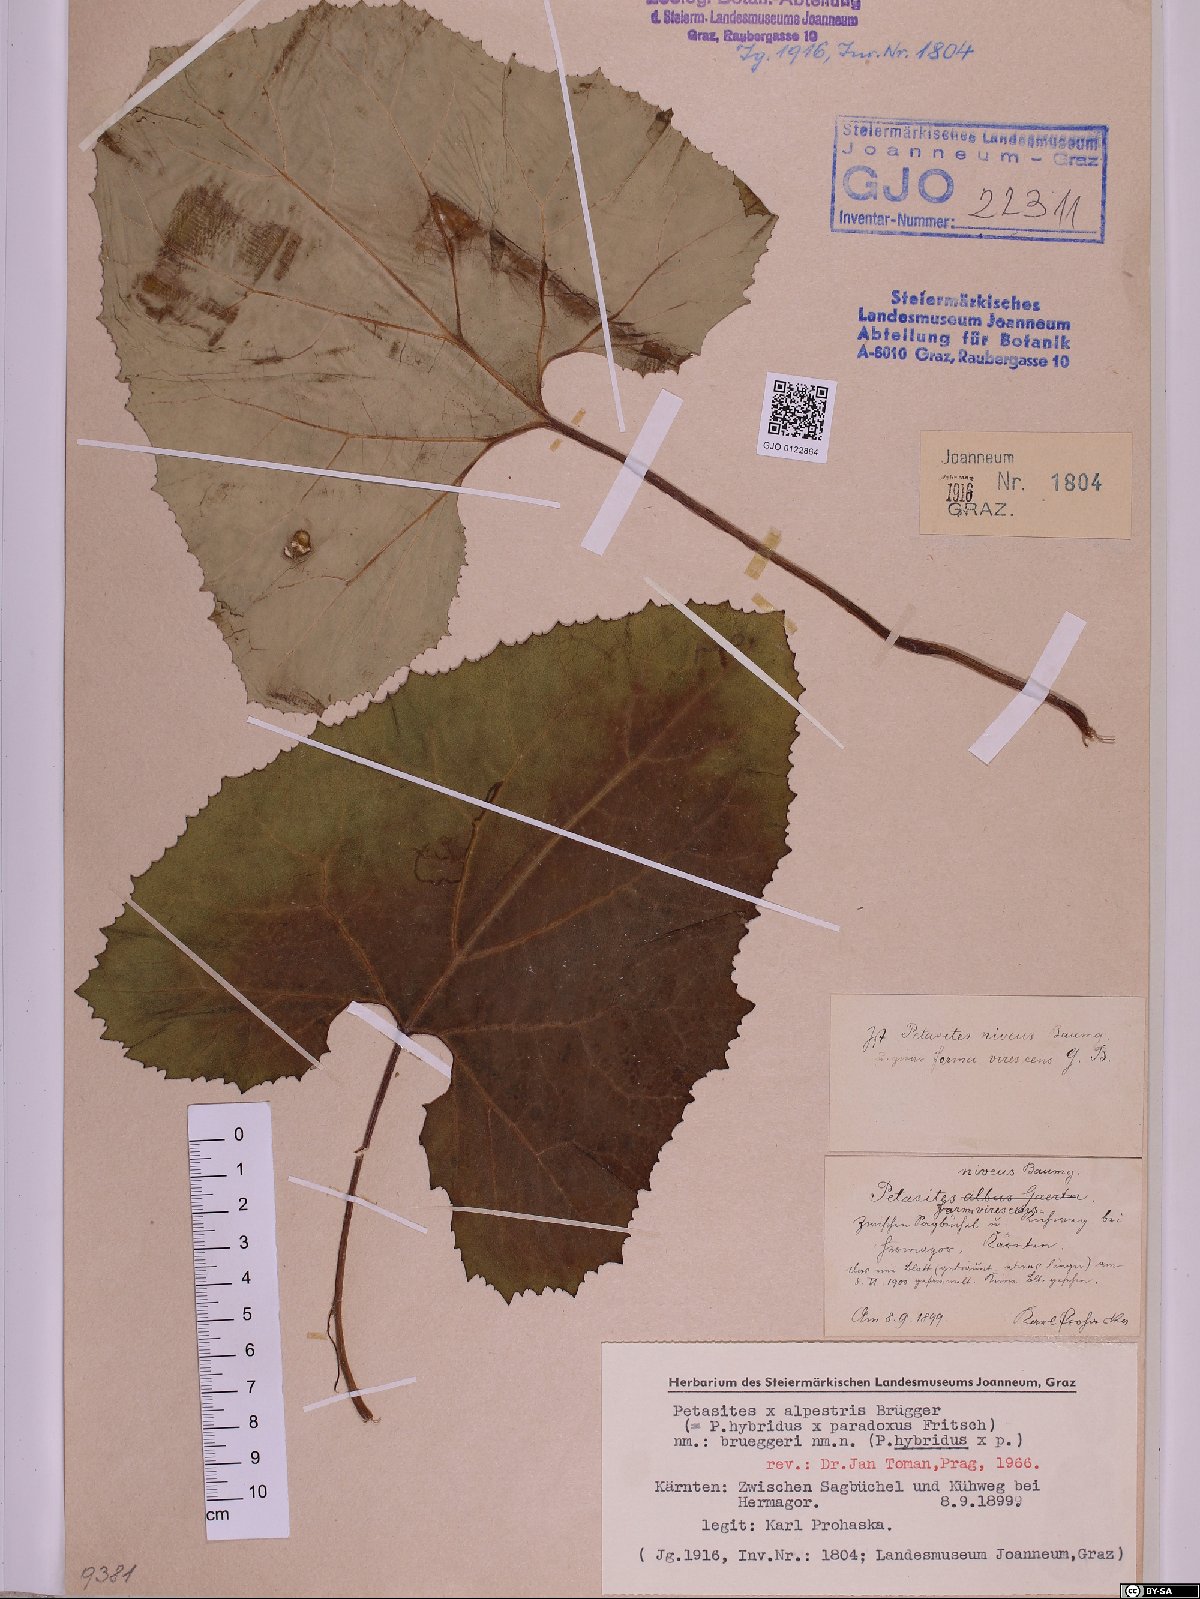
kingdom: Plantae
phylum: Tracheophyta
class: Magnoliopsida
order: Asterales
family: Asteraceae
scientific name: Asteraceae
